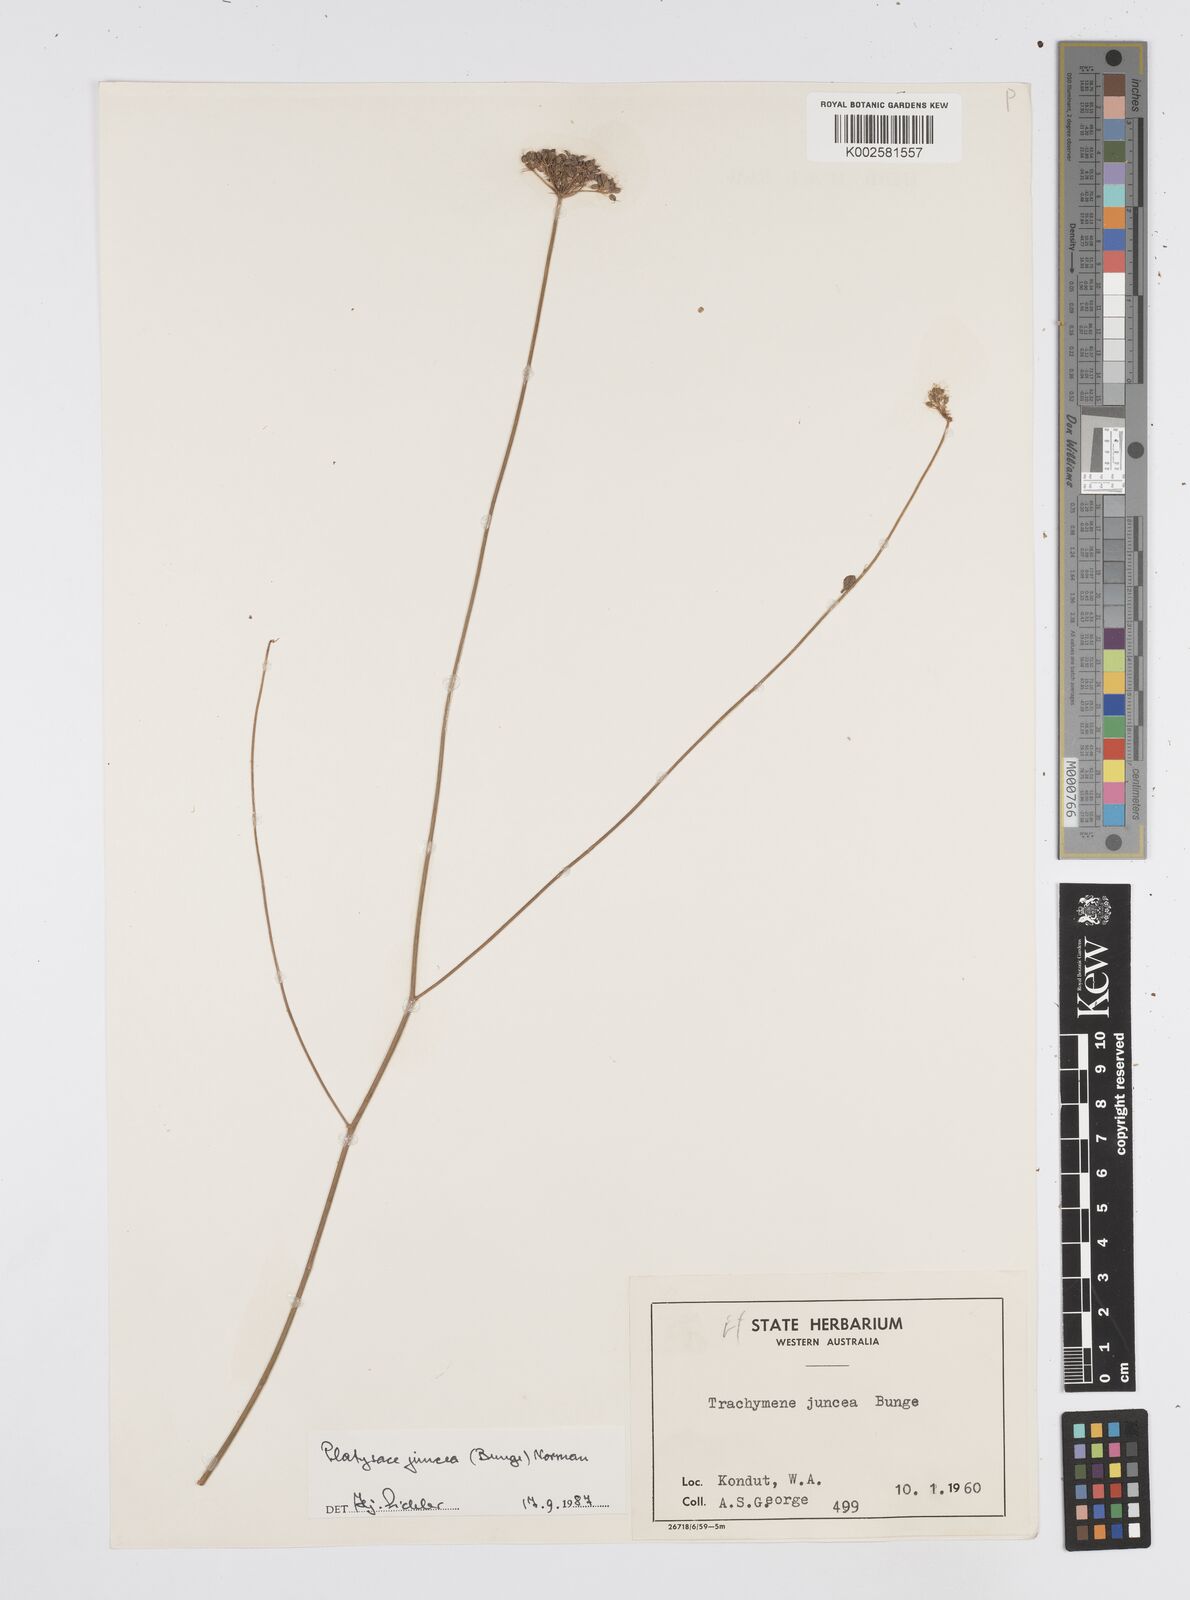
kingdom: Plantae
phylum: Tracheophyta
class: Magnoliopsida
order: Apiales
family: Apiaceae
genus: Platysace
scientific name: Platysace juncea
